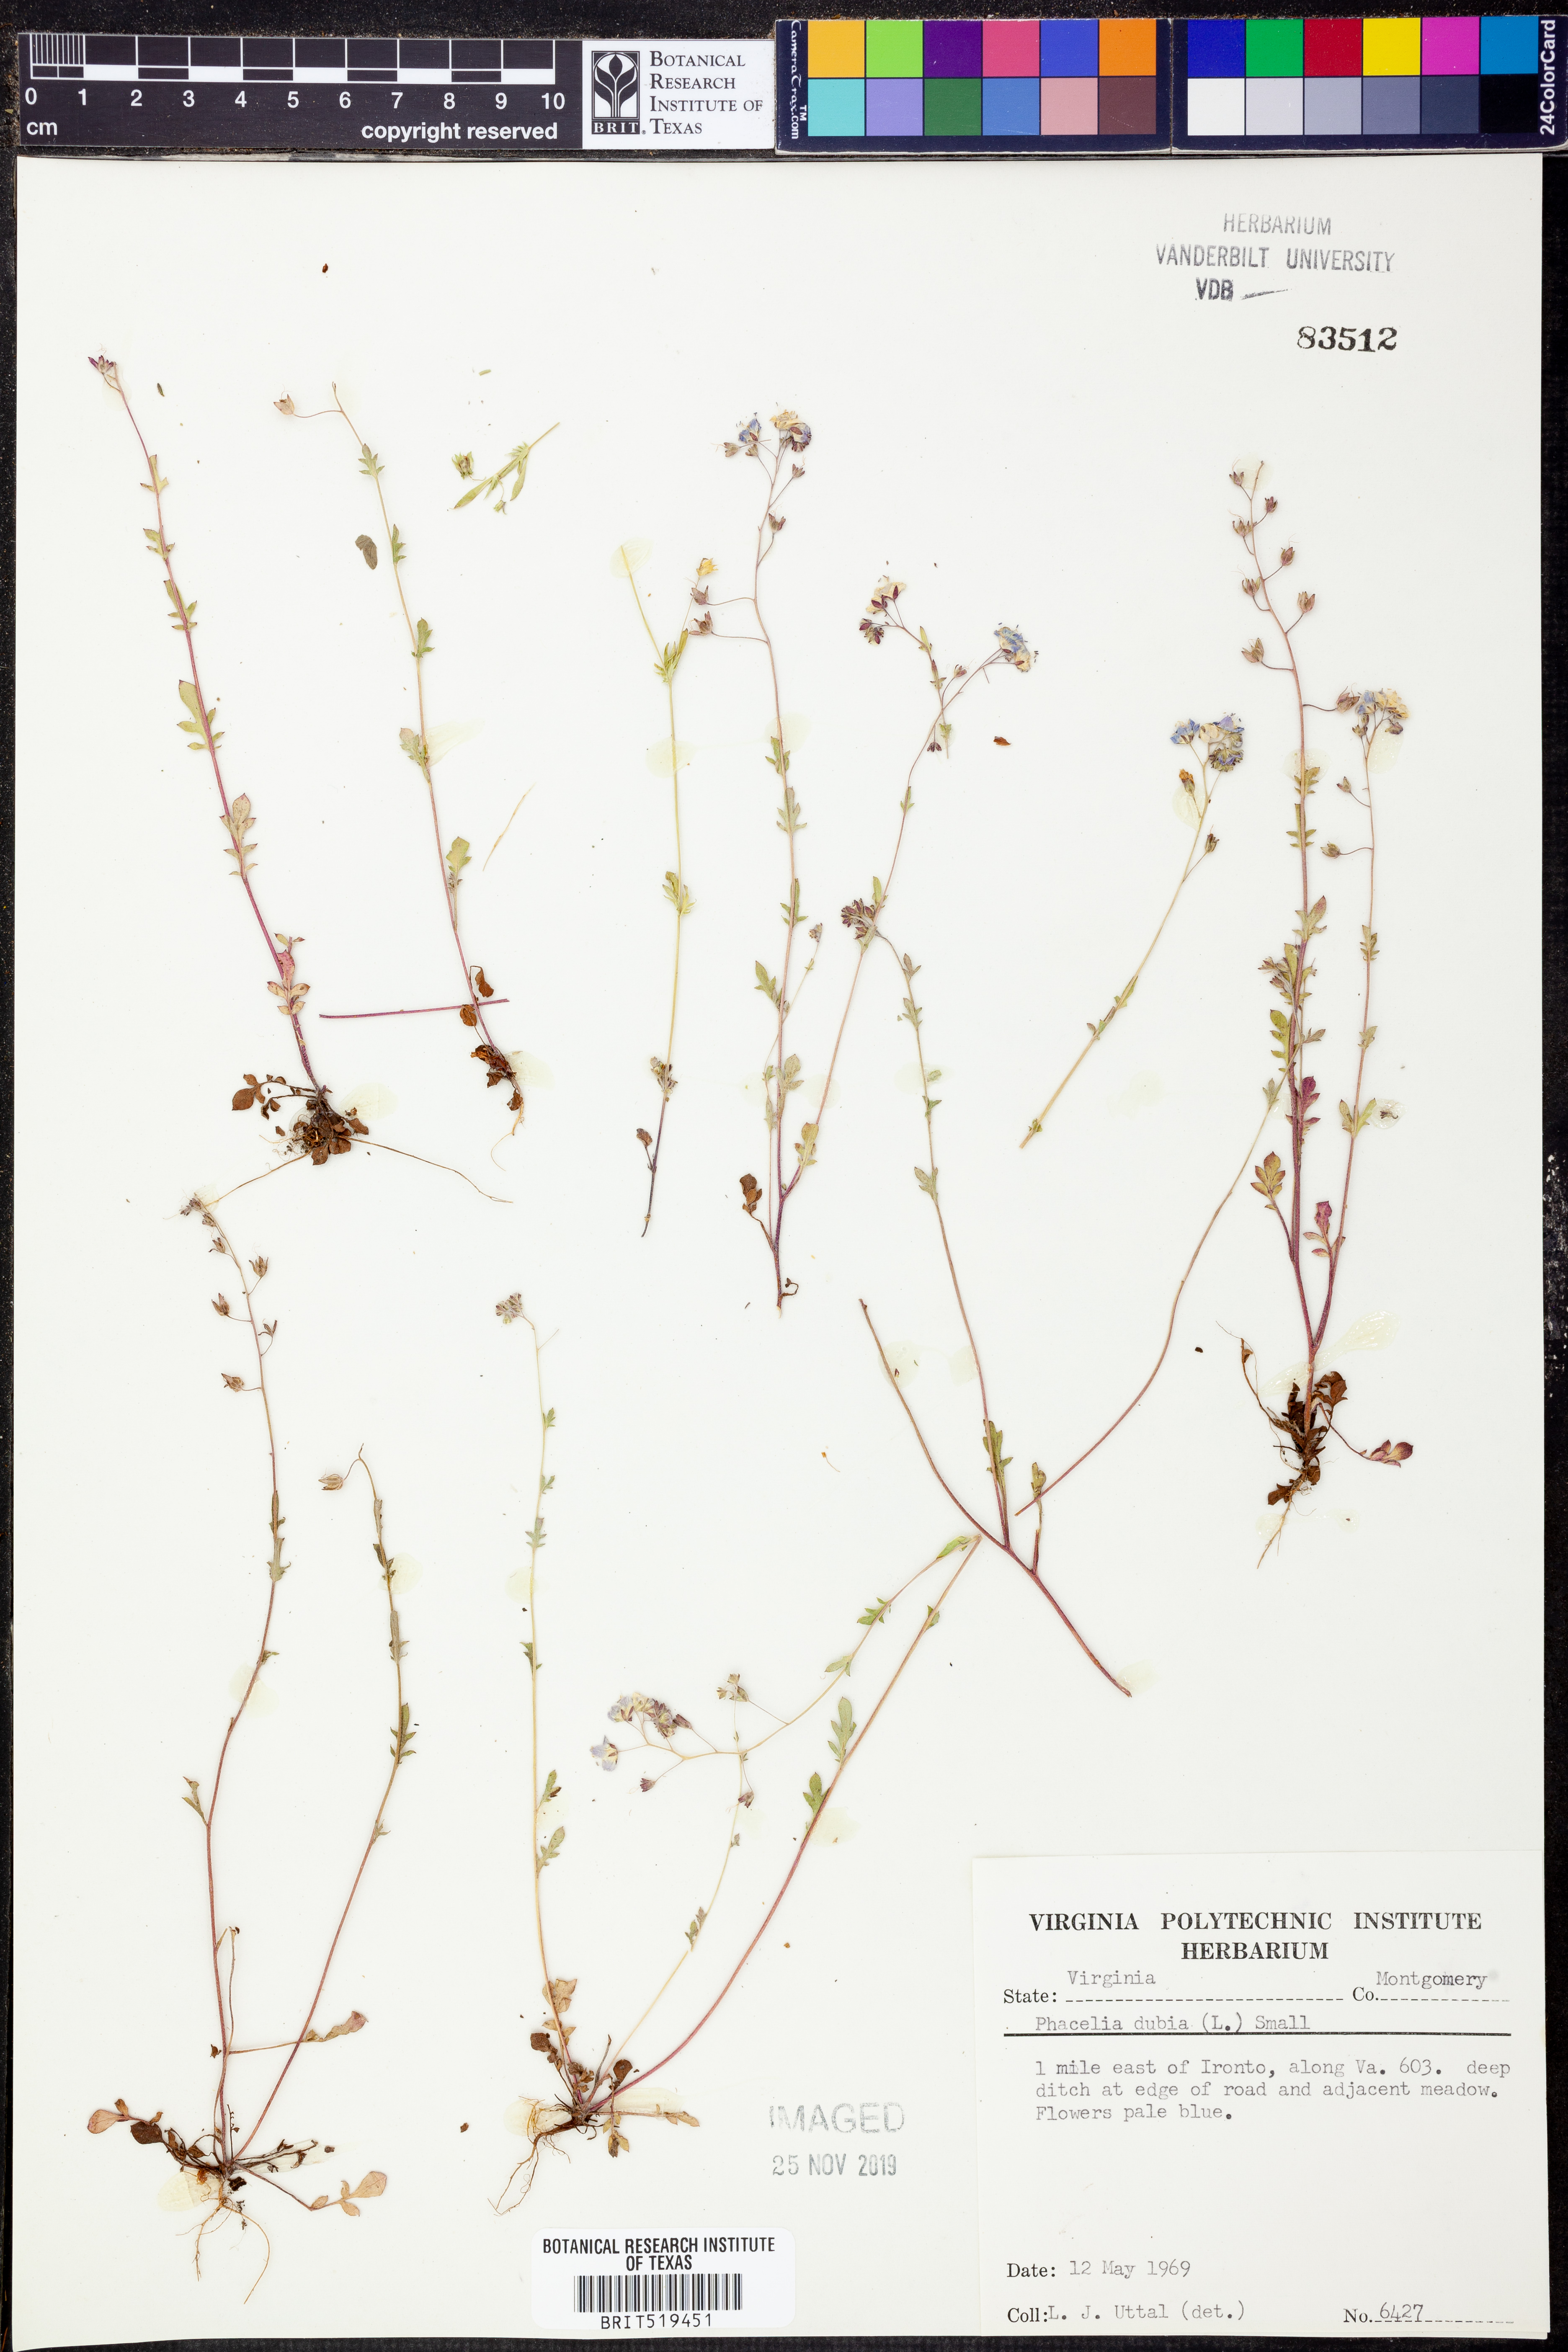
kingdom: Plantae
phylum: Tracheophyta
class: Magnoliopsida
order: Boraginales
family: Hydrophyllaceae
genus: Phacelia
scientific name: Phacelia dubia
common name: Appalachian phacelia
